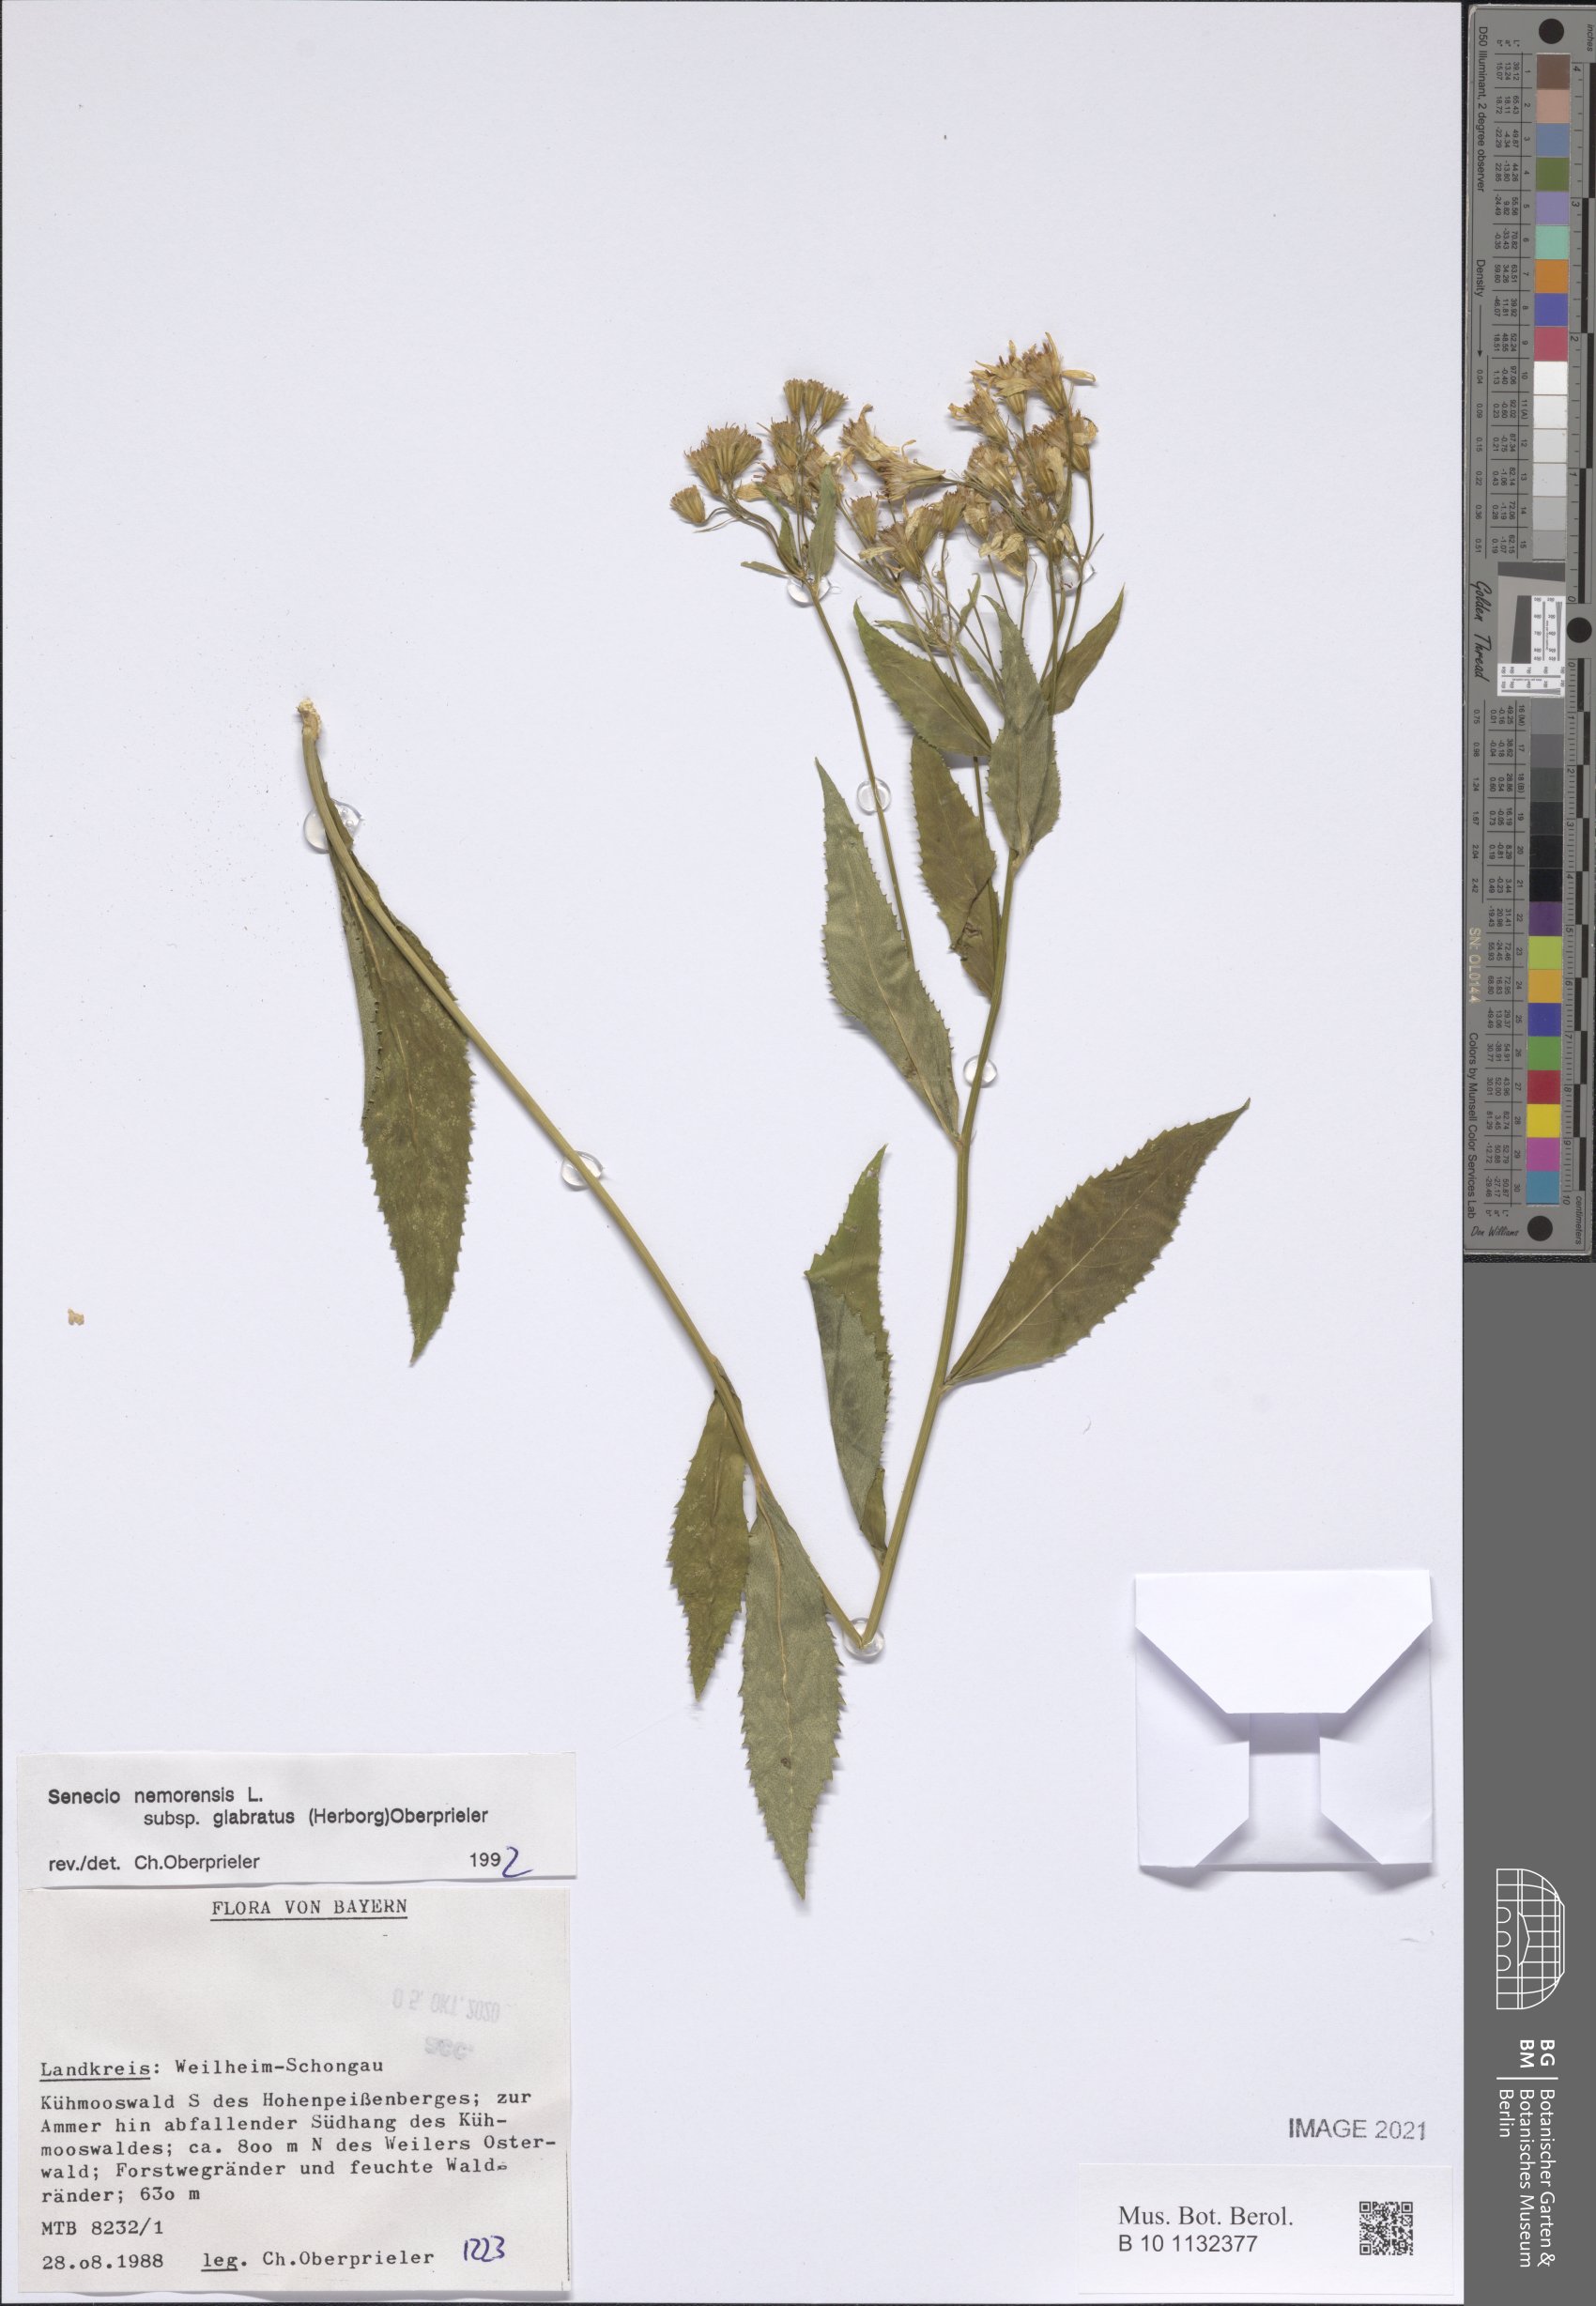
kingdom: Plantae
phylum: Tracheophyta
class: Magnoliopsida
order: Asterales
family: Asteraceae
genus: Senecio
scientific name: Senecio germanicus
